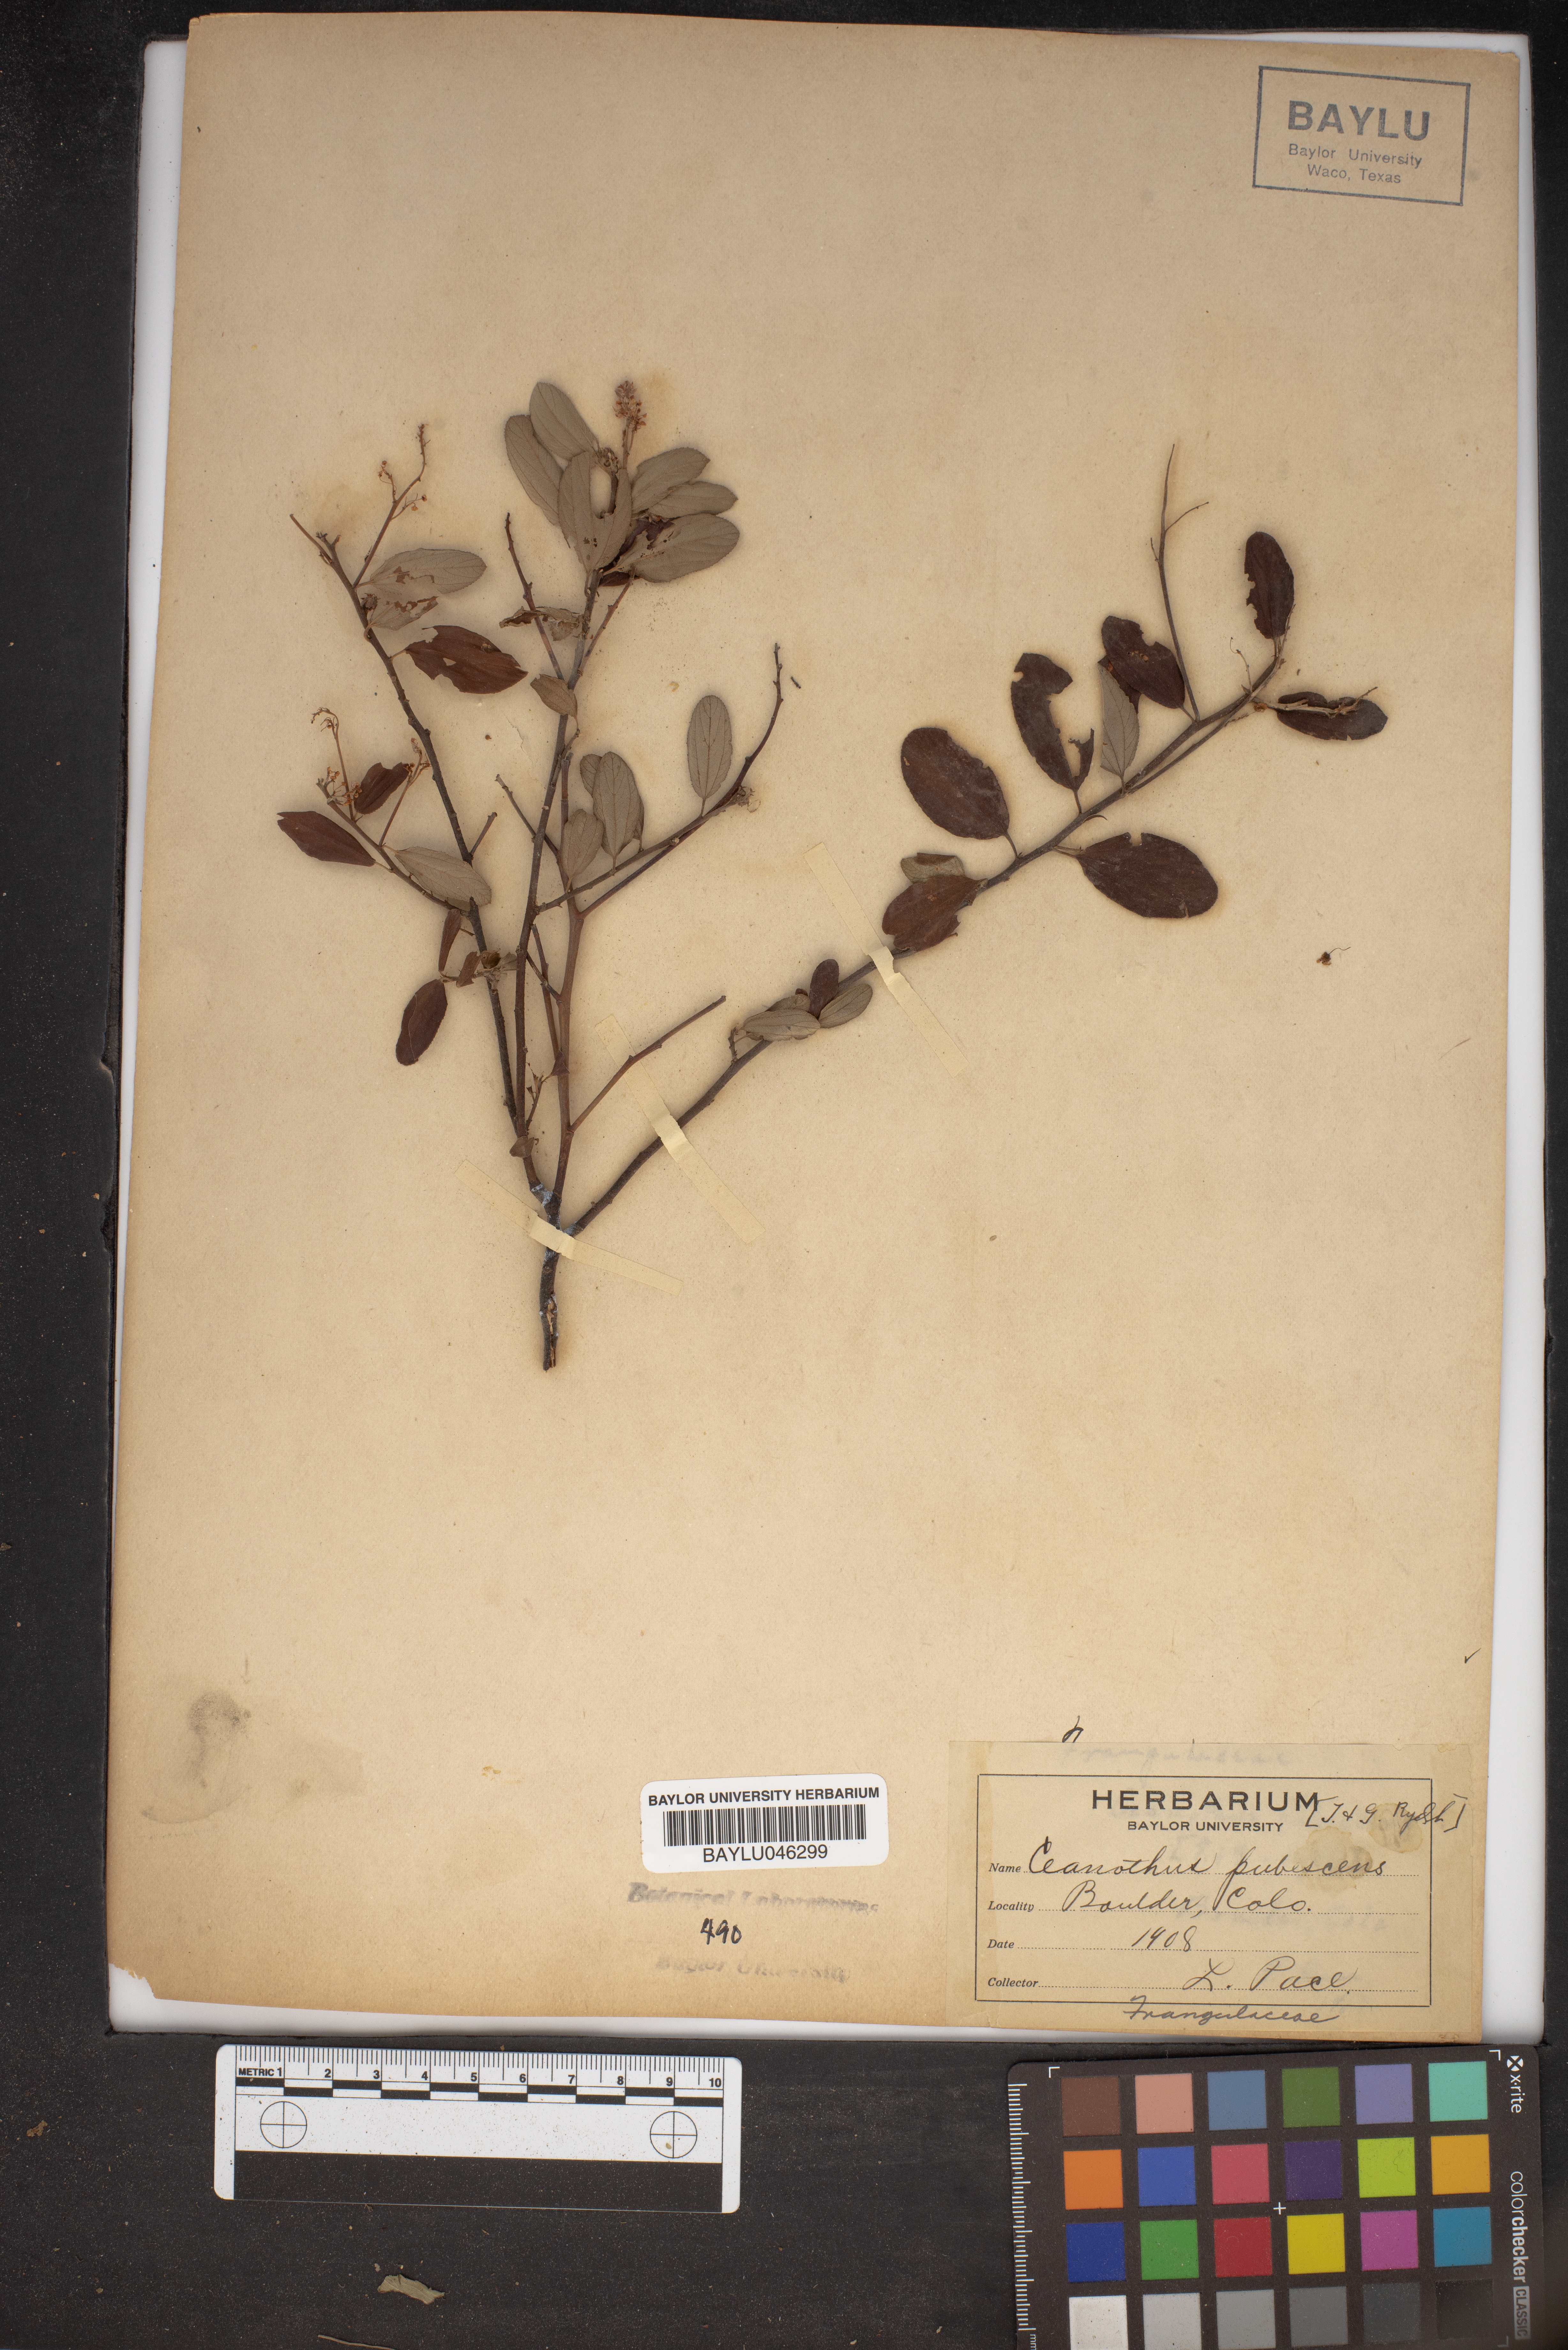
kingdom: Plantae
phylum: Tracheophyta
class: Magnoliopsida
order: Rosales
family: Rhamnaceae
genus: Ceanothus
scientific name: Ceanothus herbaceus
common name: Inland ceanothus
